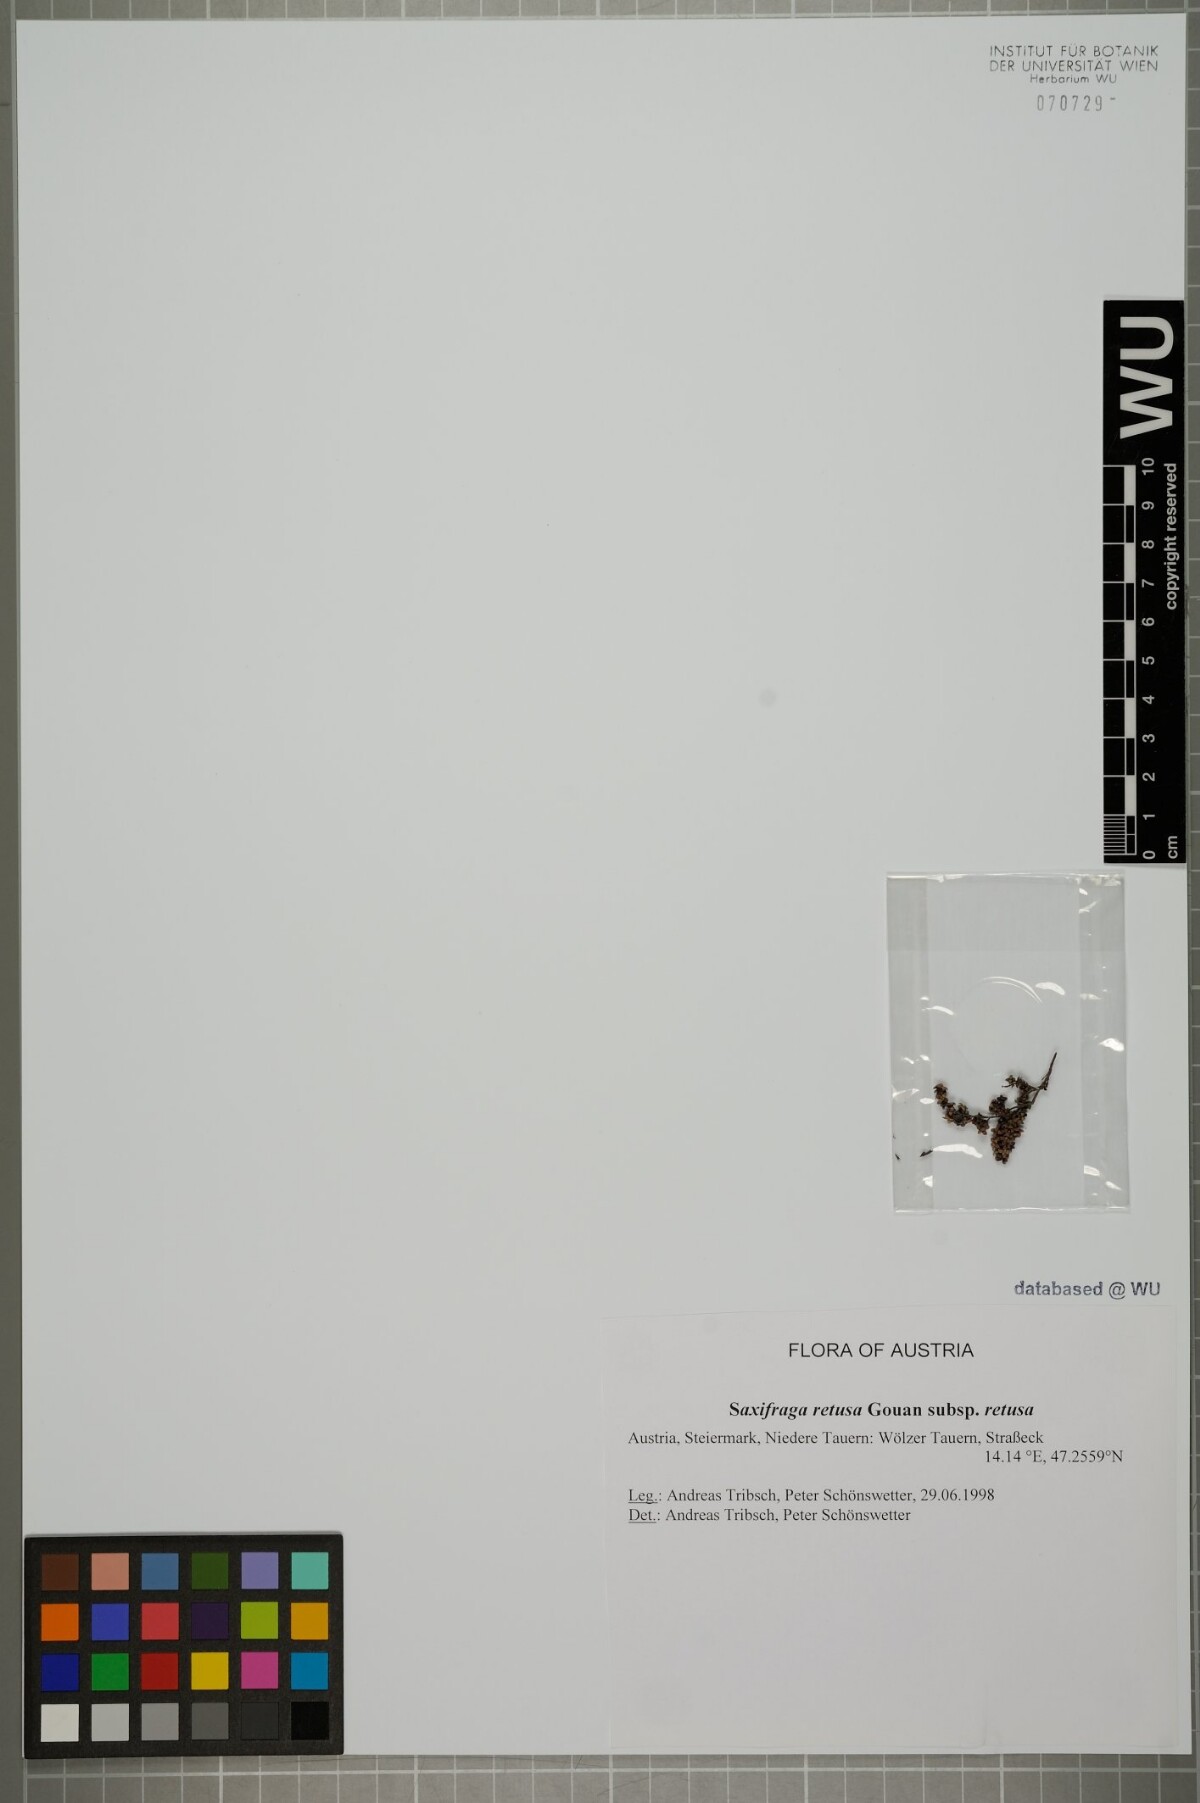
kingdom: Plantae
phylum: Tracheophyta
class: Magnoliopsida
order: Saxifragales
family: Saxifragaceae
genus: Saxifraga
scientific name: Saxifraga retusa
